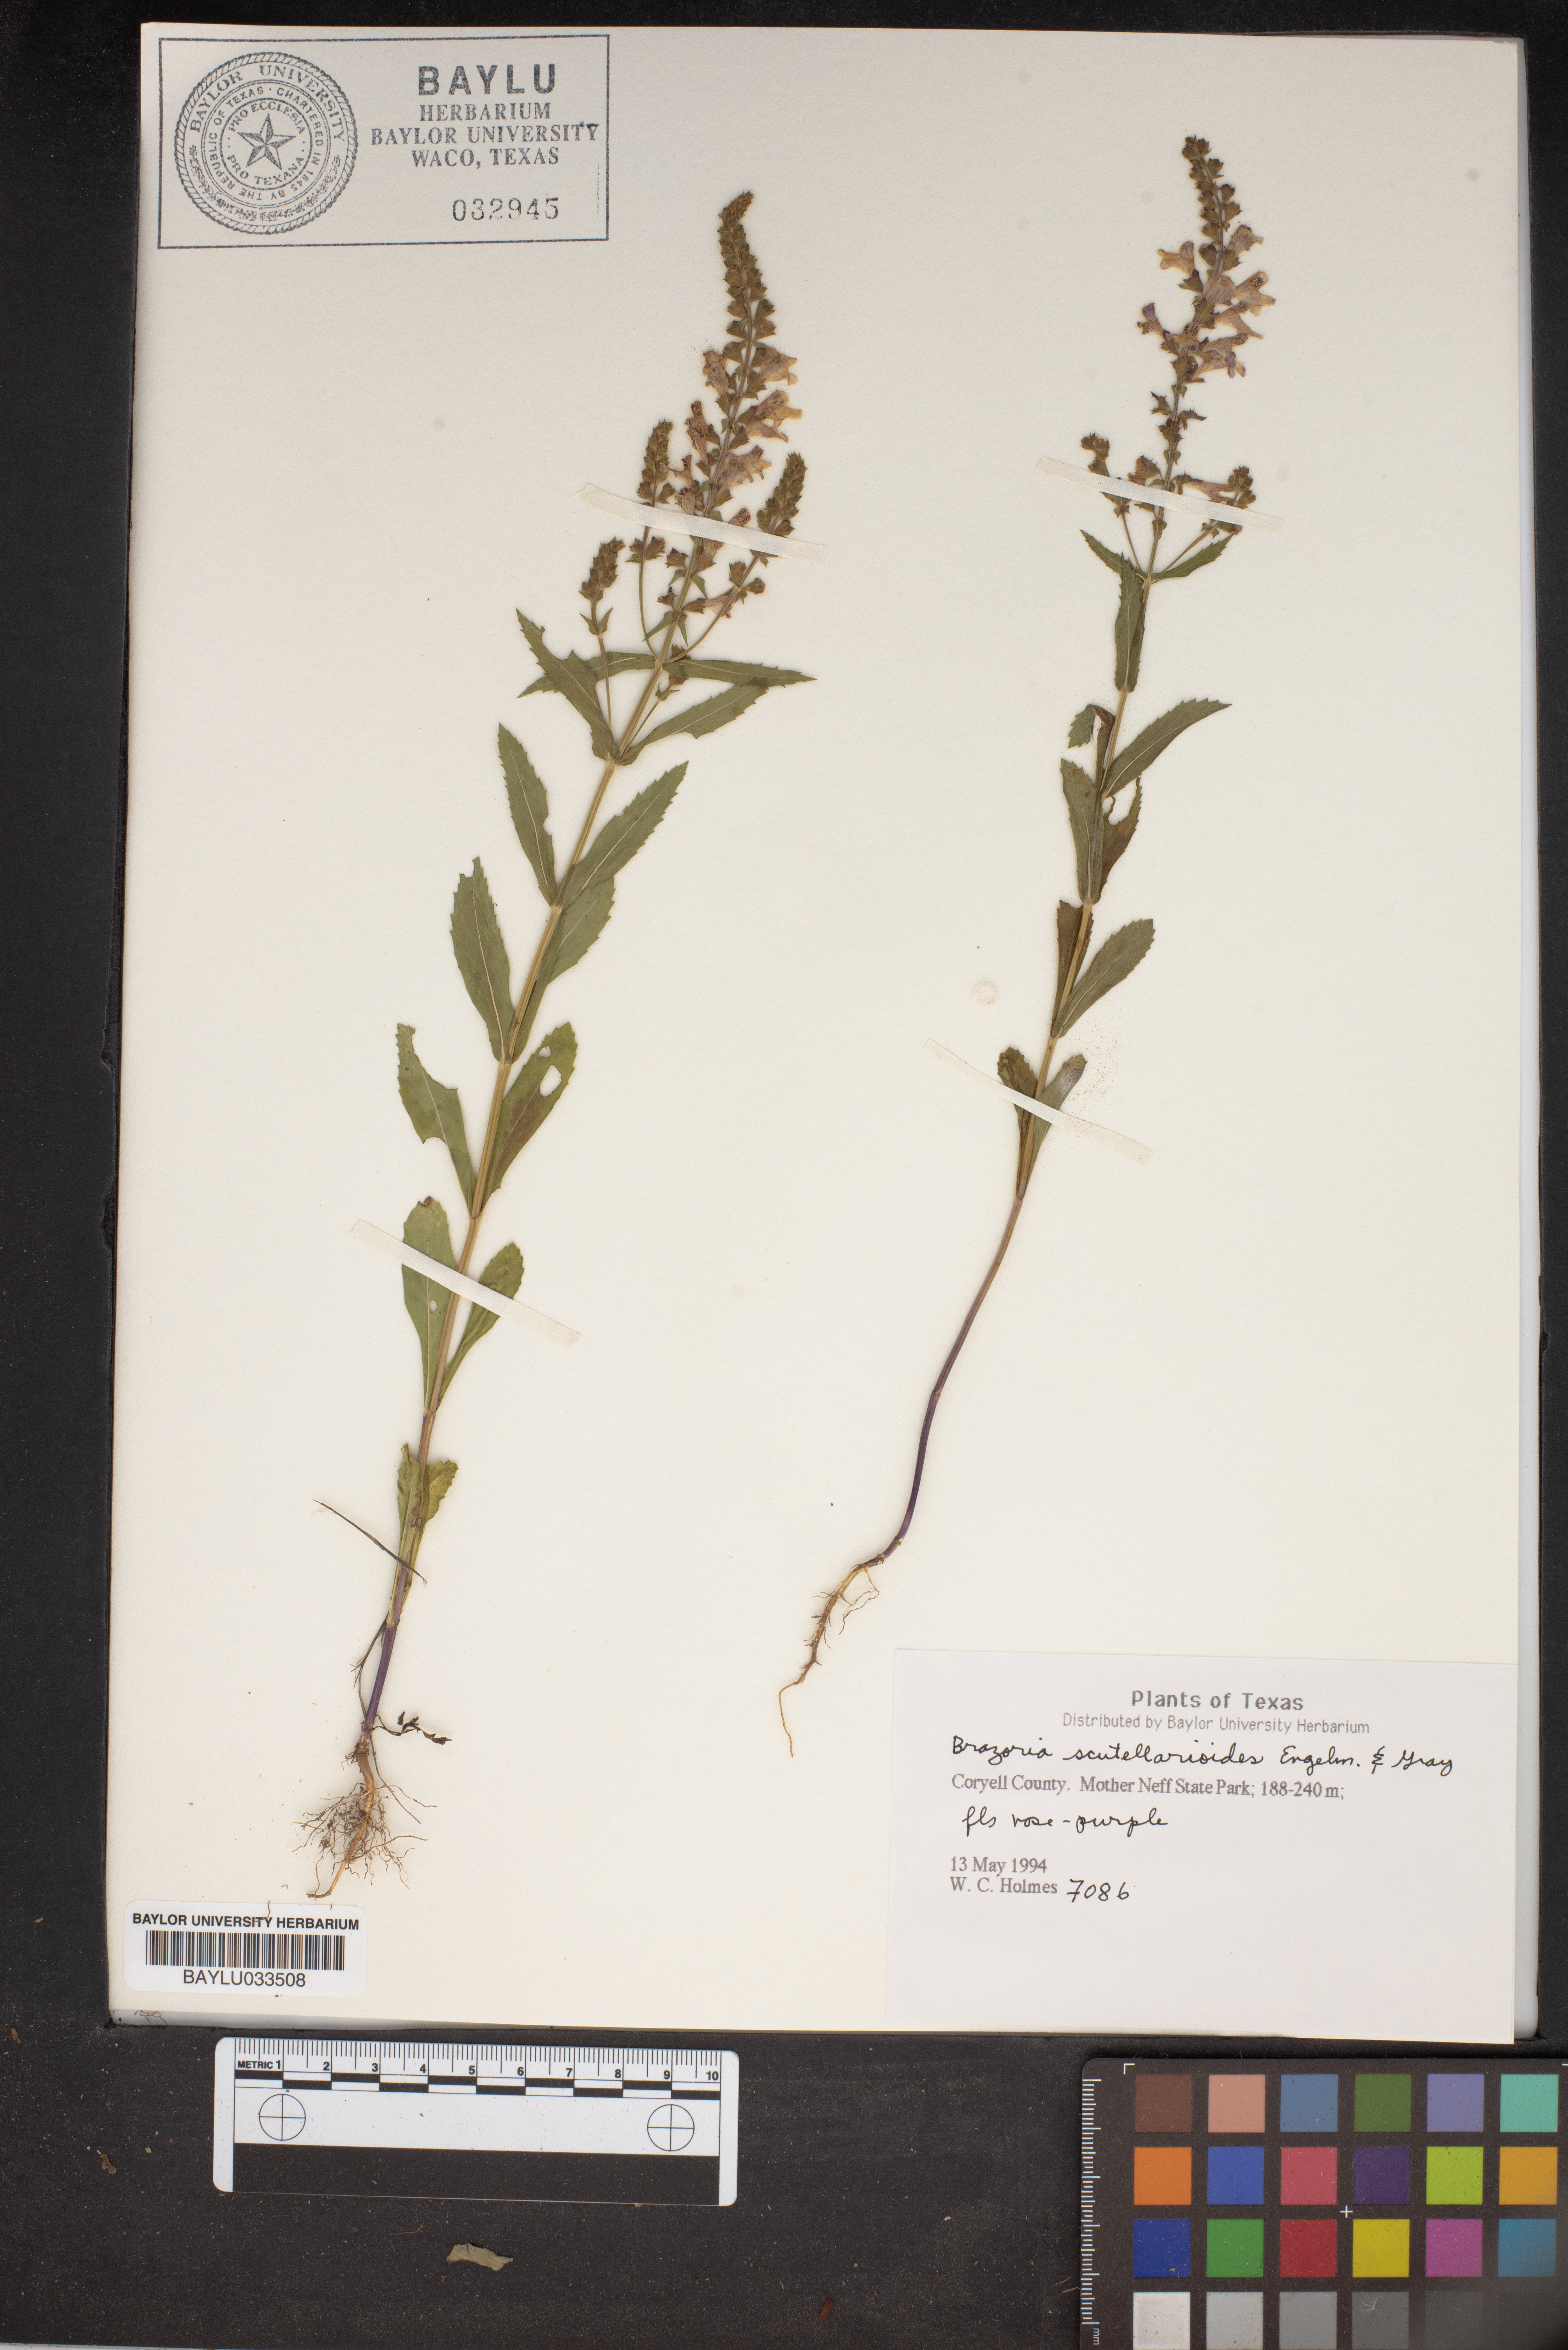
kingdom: Plantae
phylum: Tracheophyta
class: Magnoliopsida
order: Lamiales
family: Lamiaceae
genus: Warnockia
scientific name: Warnockia scutellarioides
